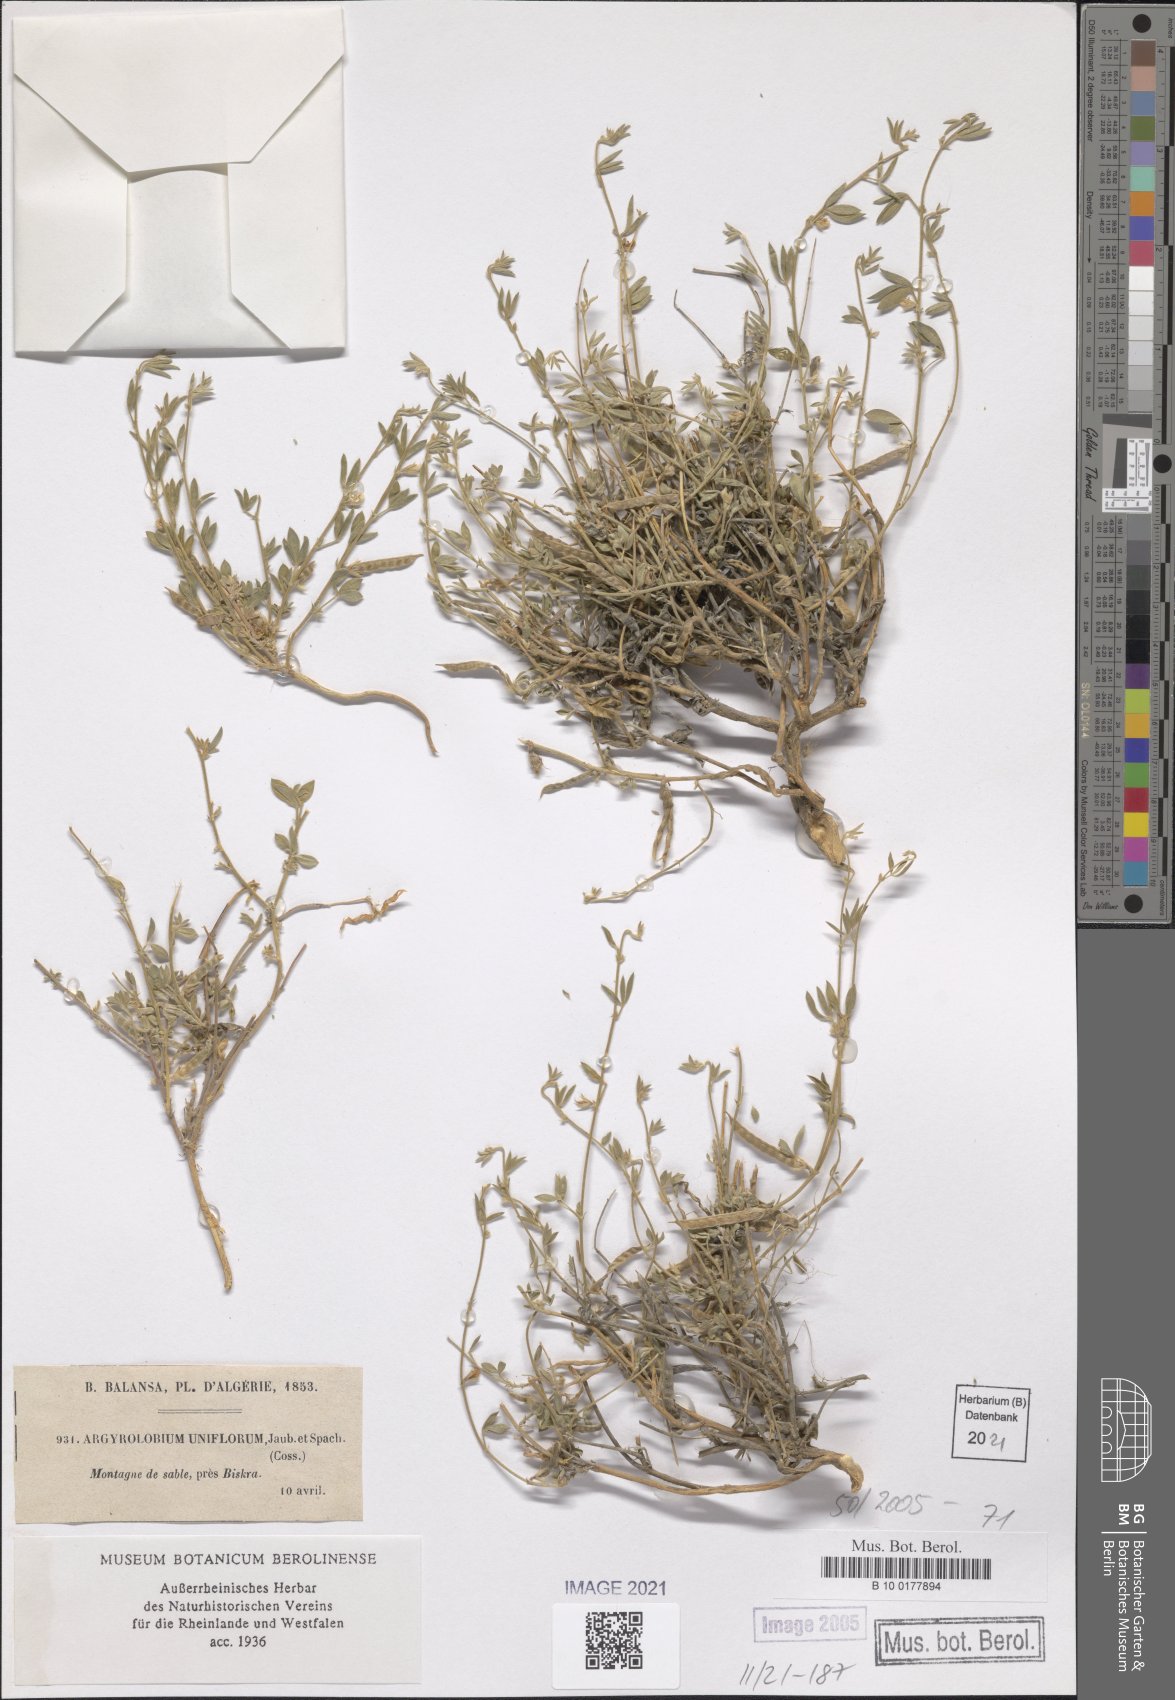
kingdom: Plantae
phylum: Tracheophyta
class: Magnoliopsida
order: Fabales
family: Fabaceae
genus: Argyrolobium
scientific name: Argyrolobium uniflorum
